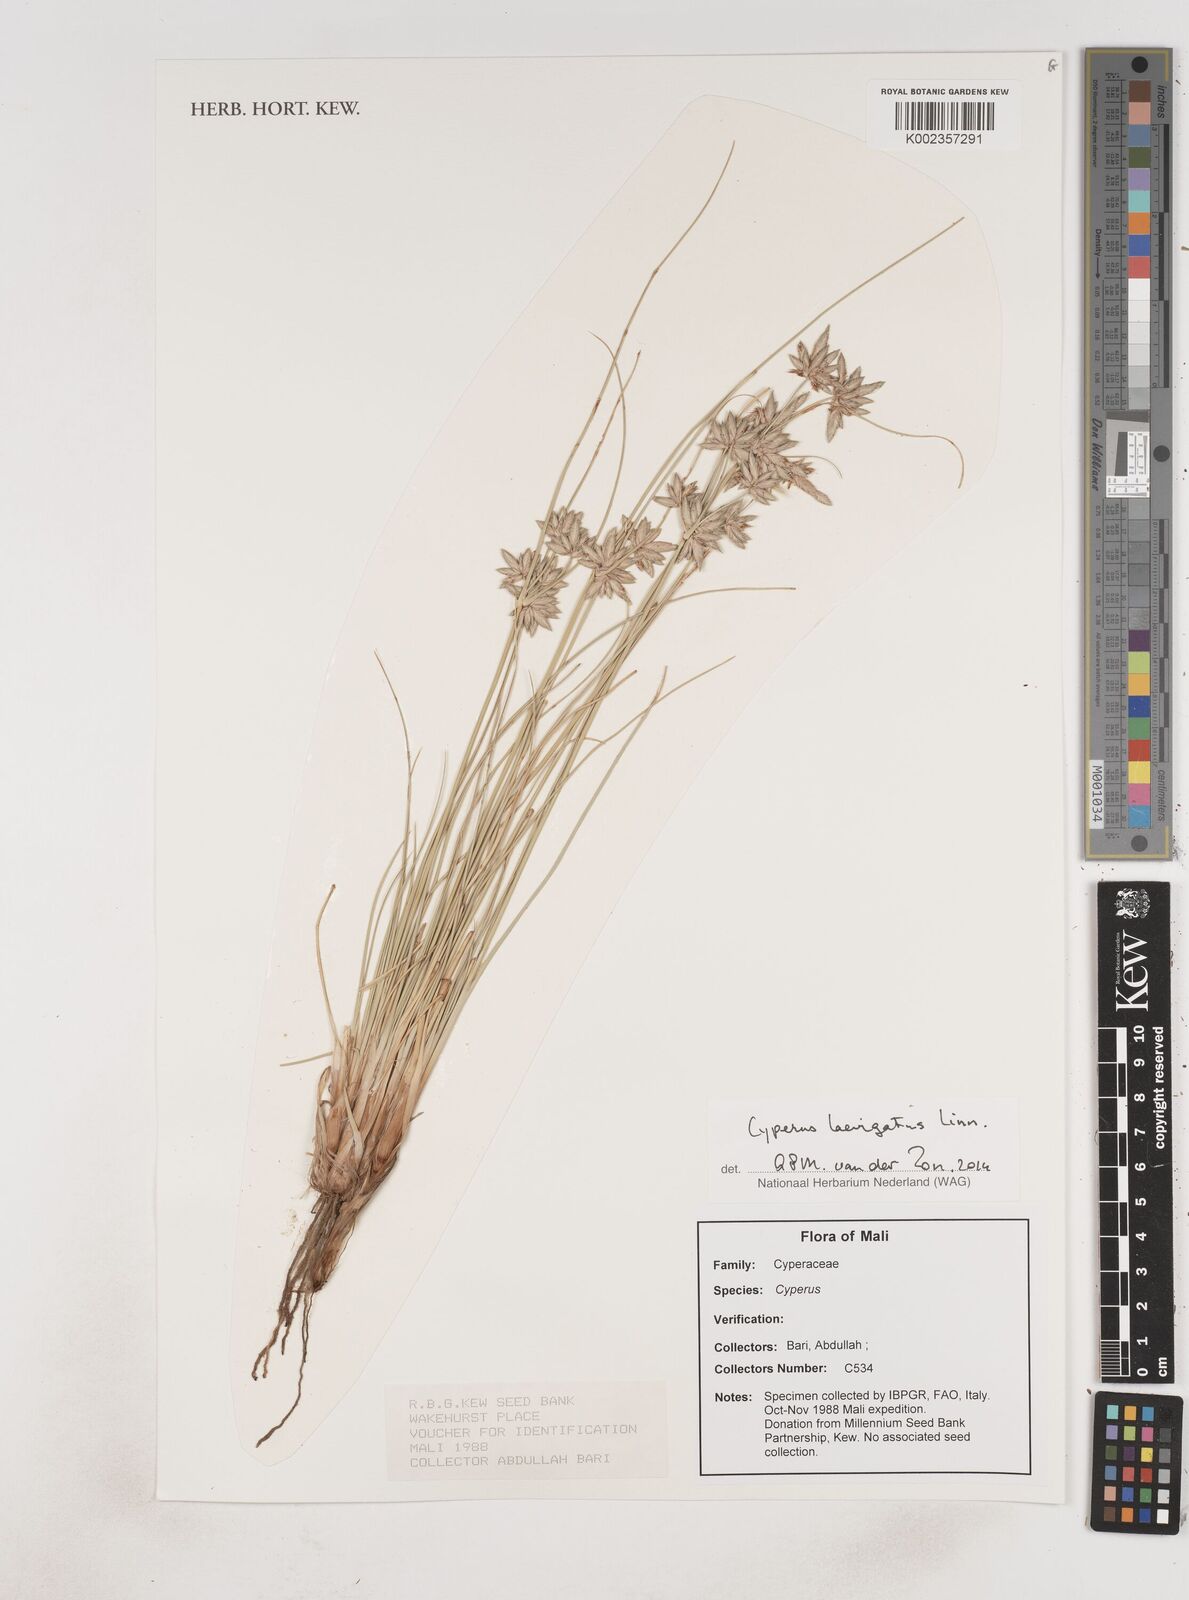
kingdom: Plantae
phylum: Tracheophyta
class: Liliopsida
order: Poales
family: Cyperaceae
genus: Cyperus
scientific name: Cyperus
